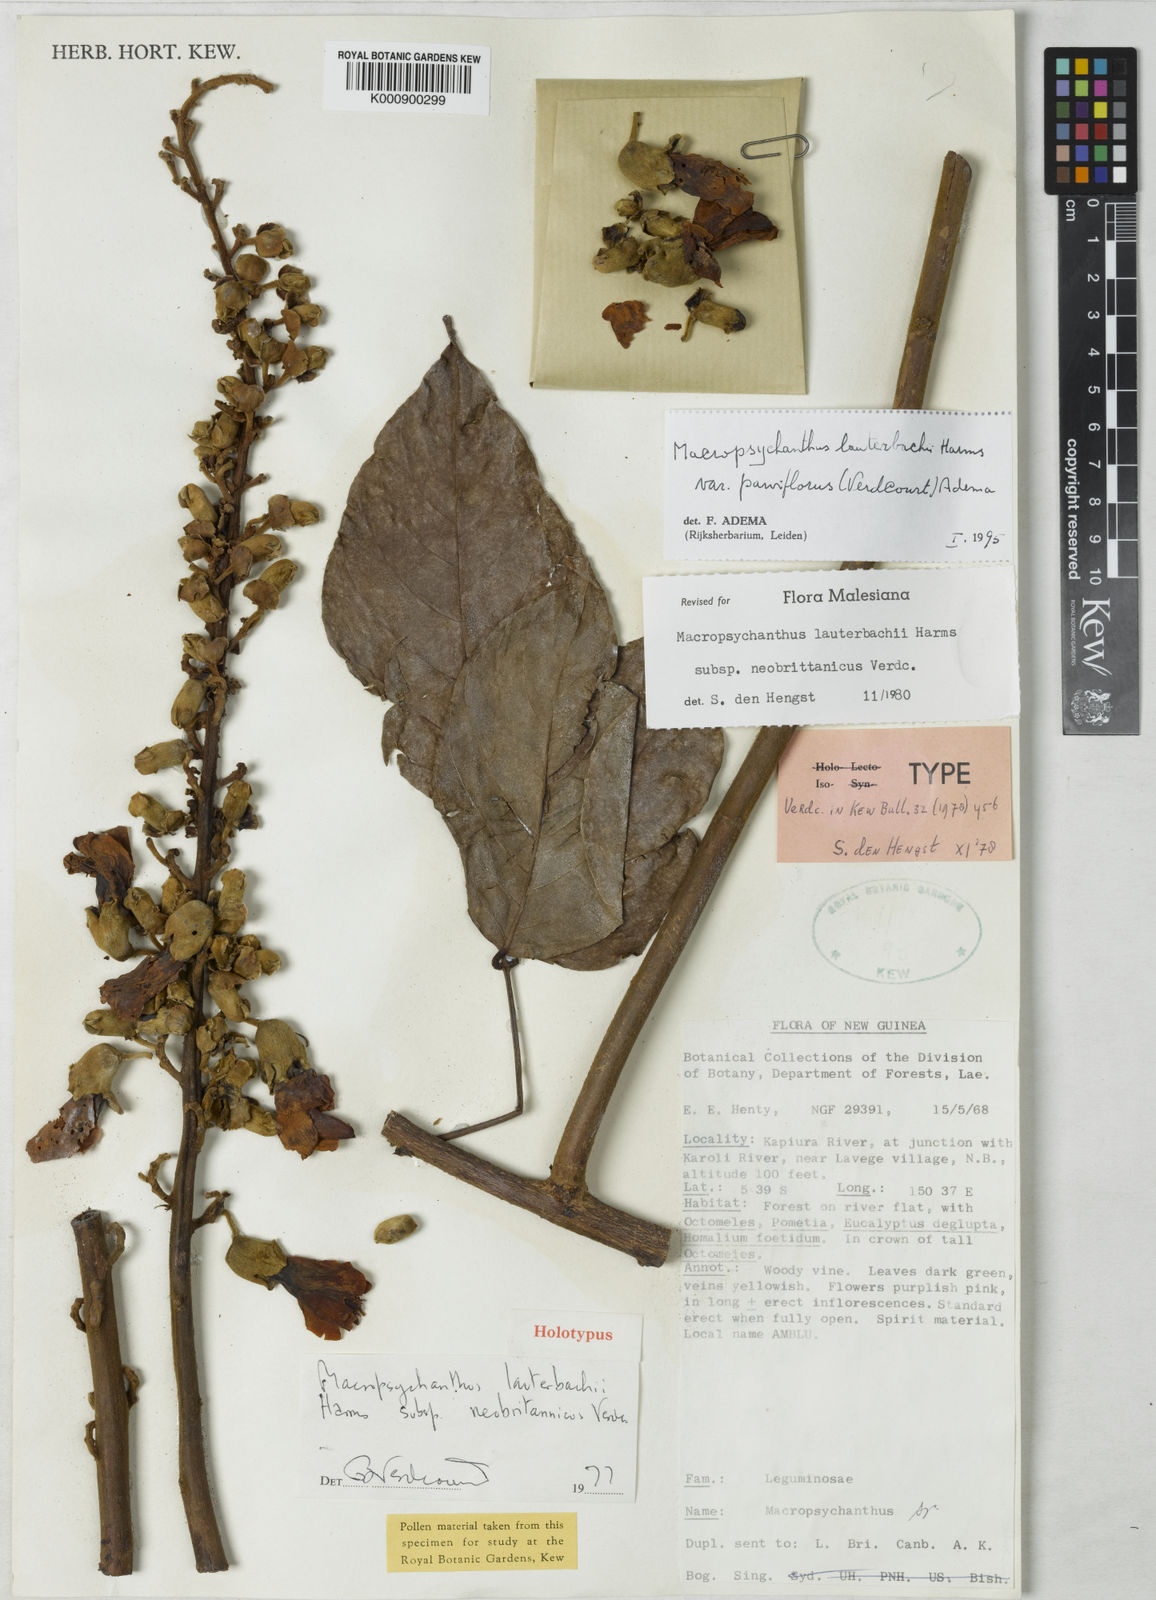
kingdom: Plantae
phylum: Tracheophyta
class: Magnoliopsida
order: Fabales
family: Fabaceae
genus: Macropsychanthus
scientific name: Macropsychanthus lauterbachii
